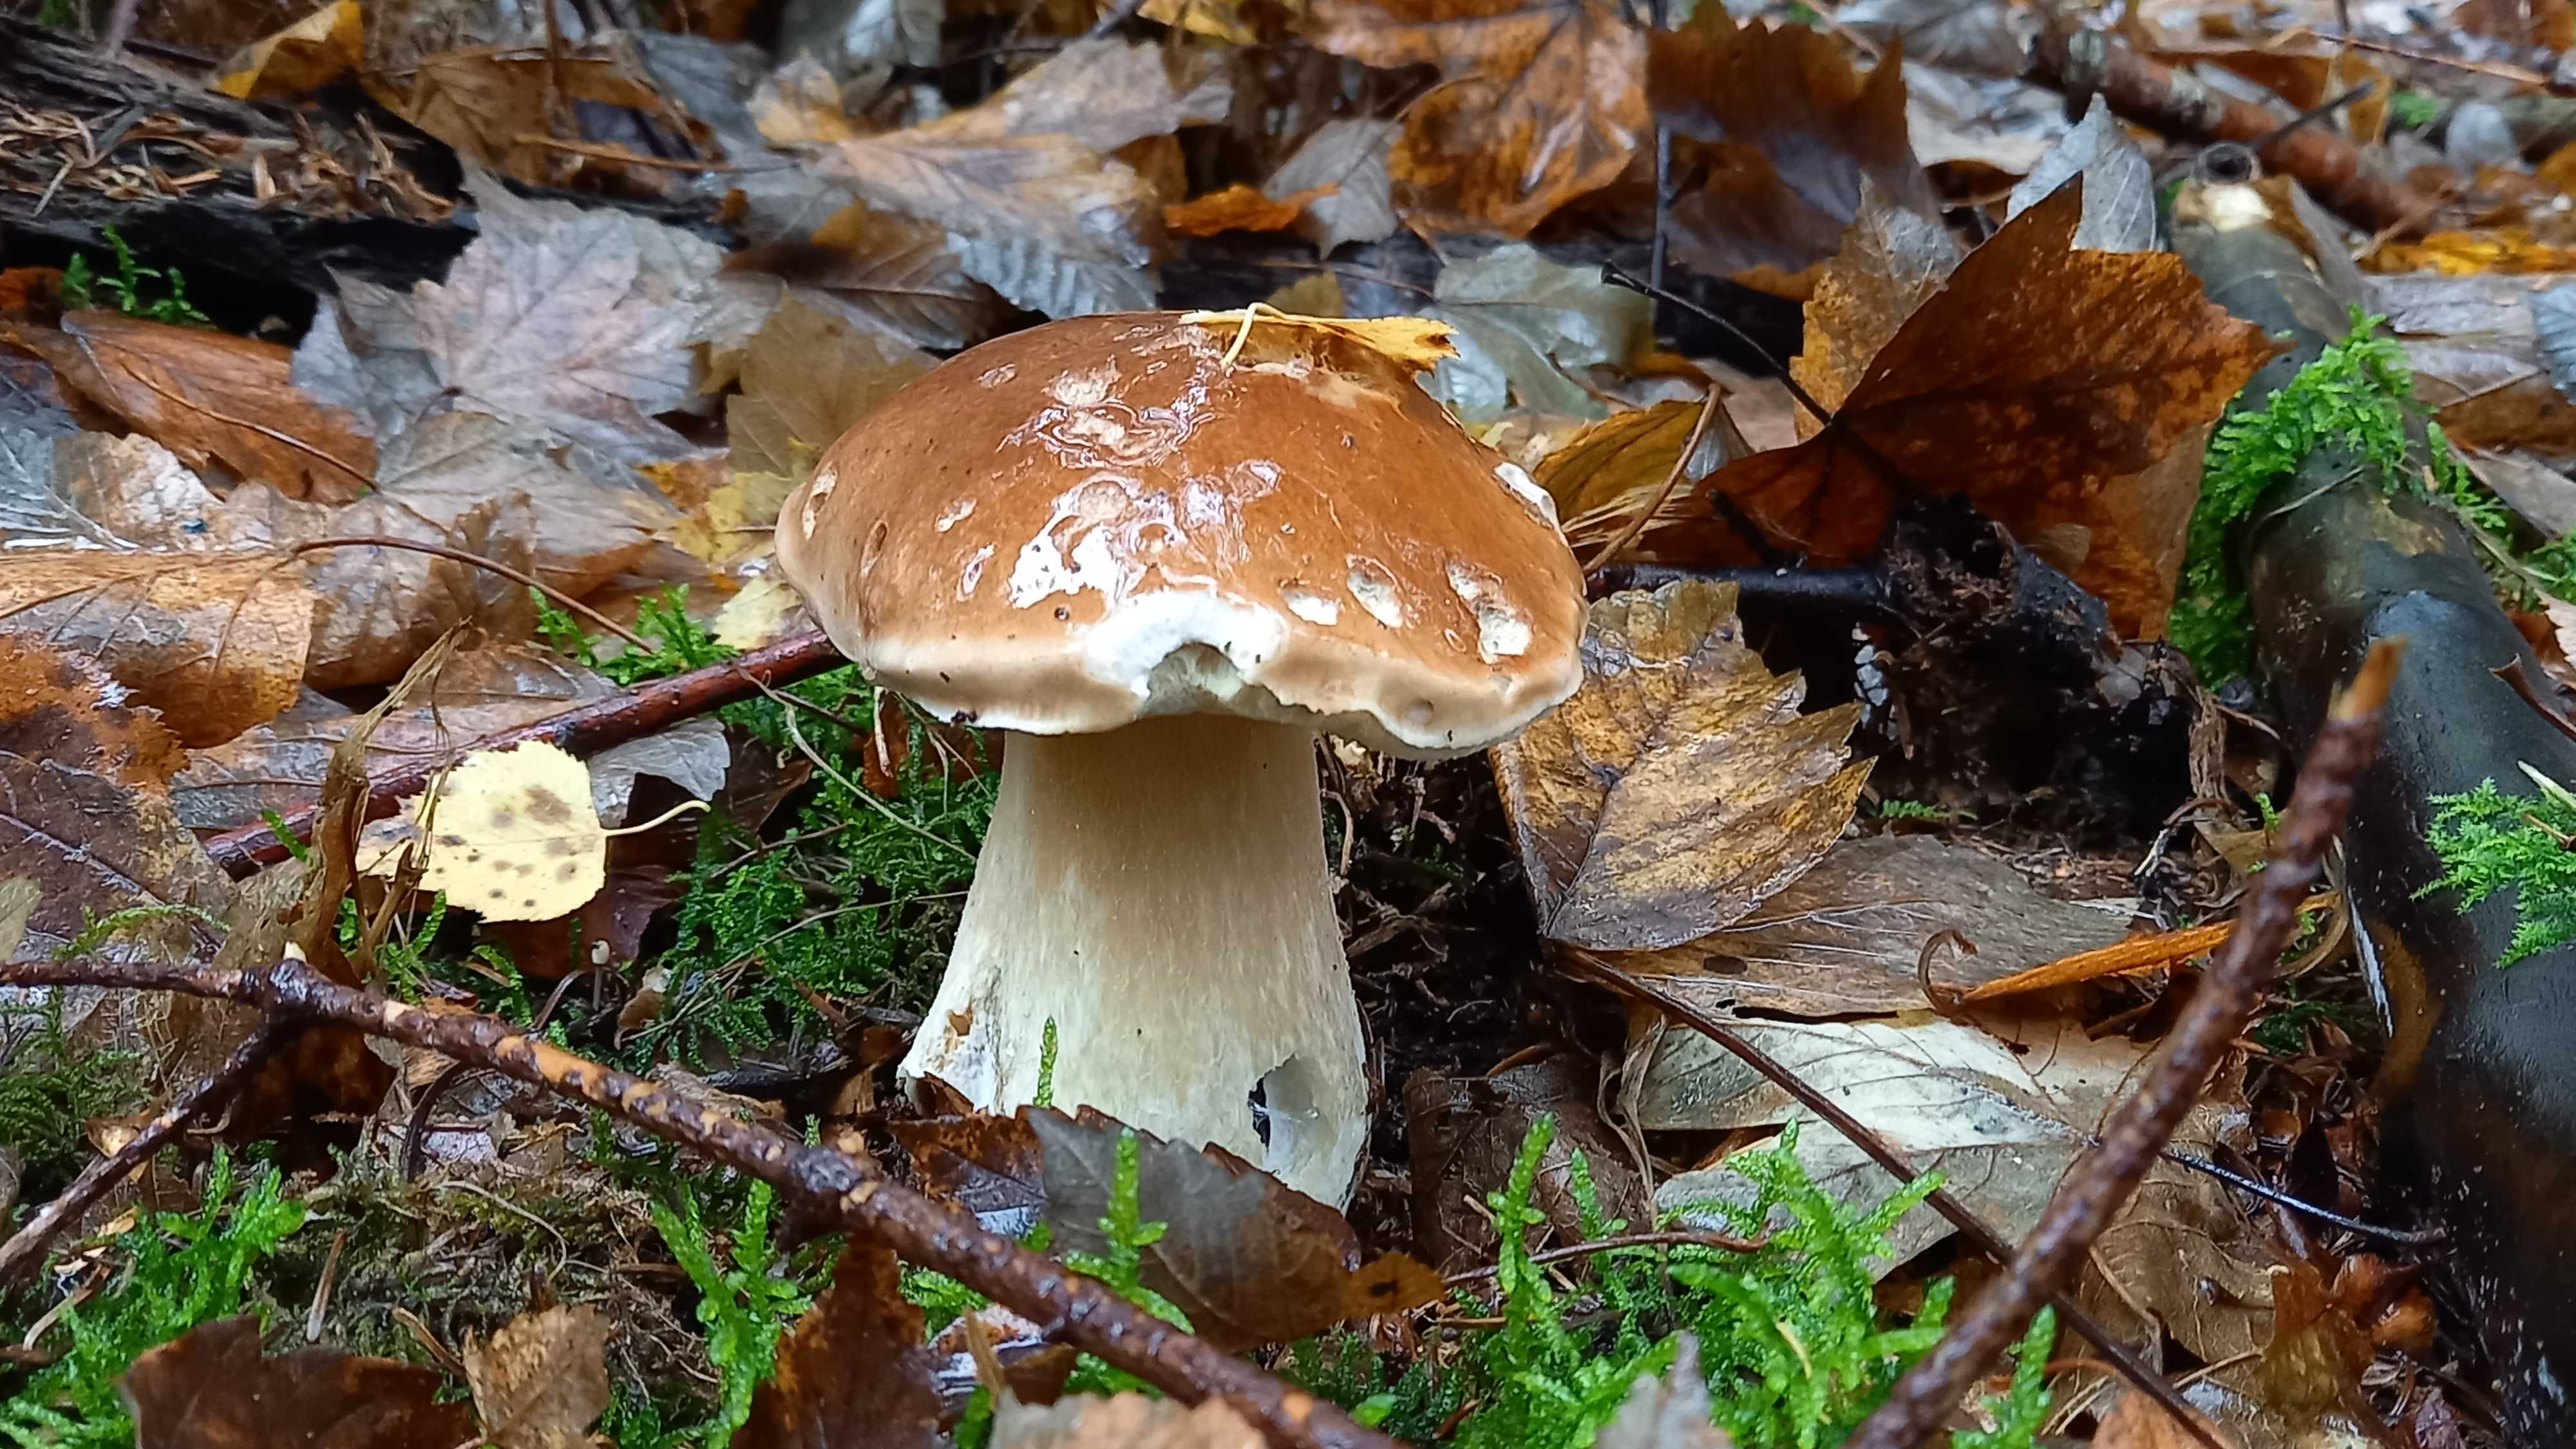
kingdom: Fungi
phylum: Basidiomycota
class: Agaricomycetes
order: Boletales
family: Boletaceae
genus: Boletus
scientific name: Boletus edulis
